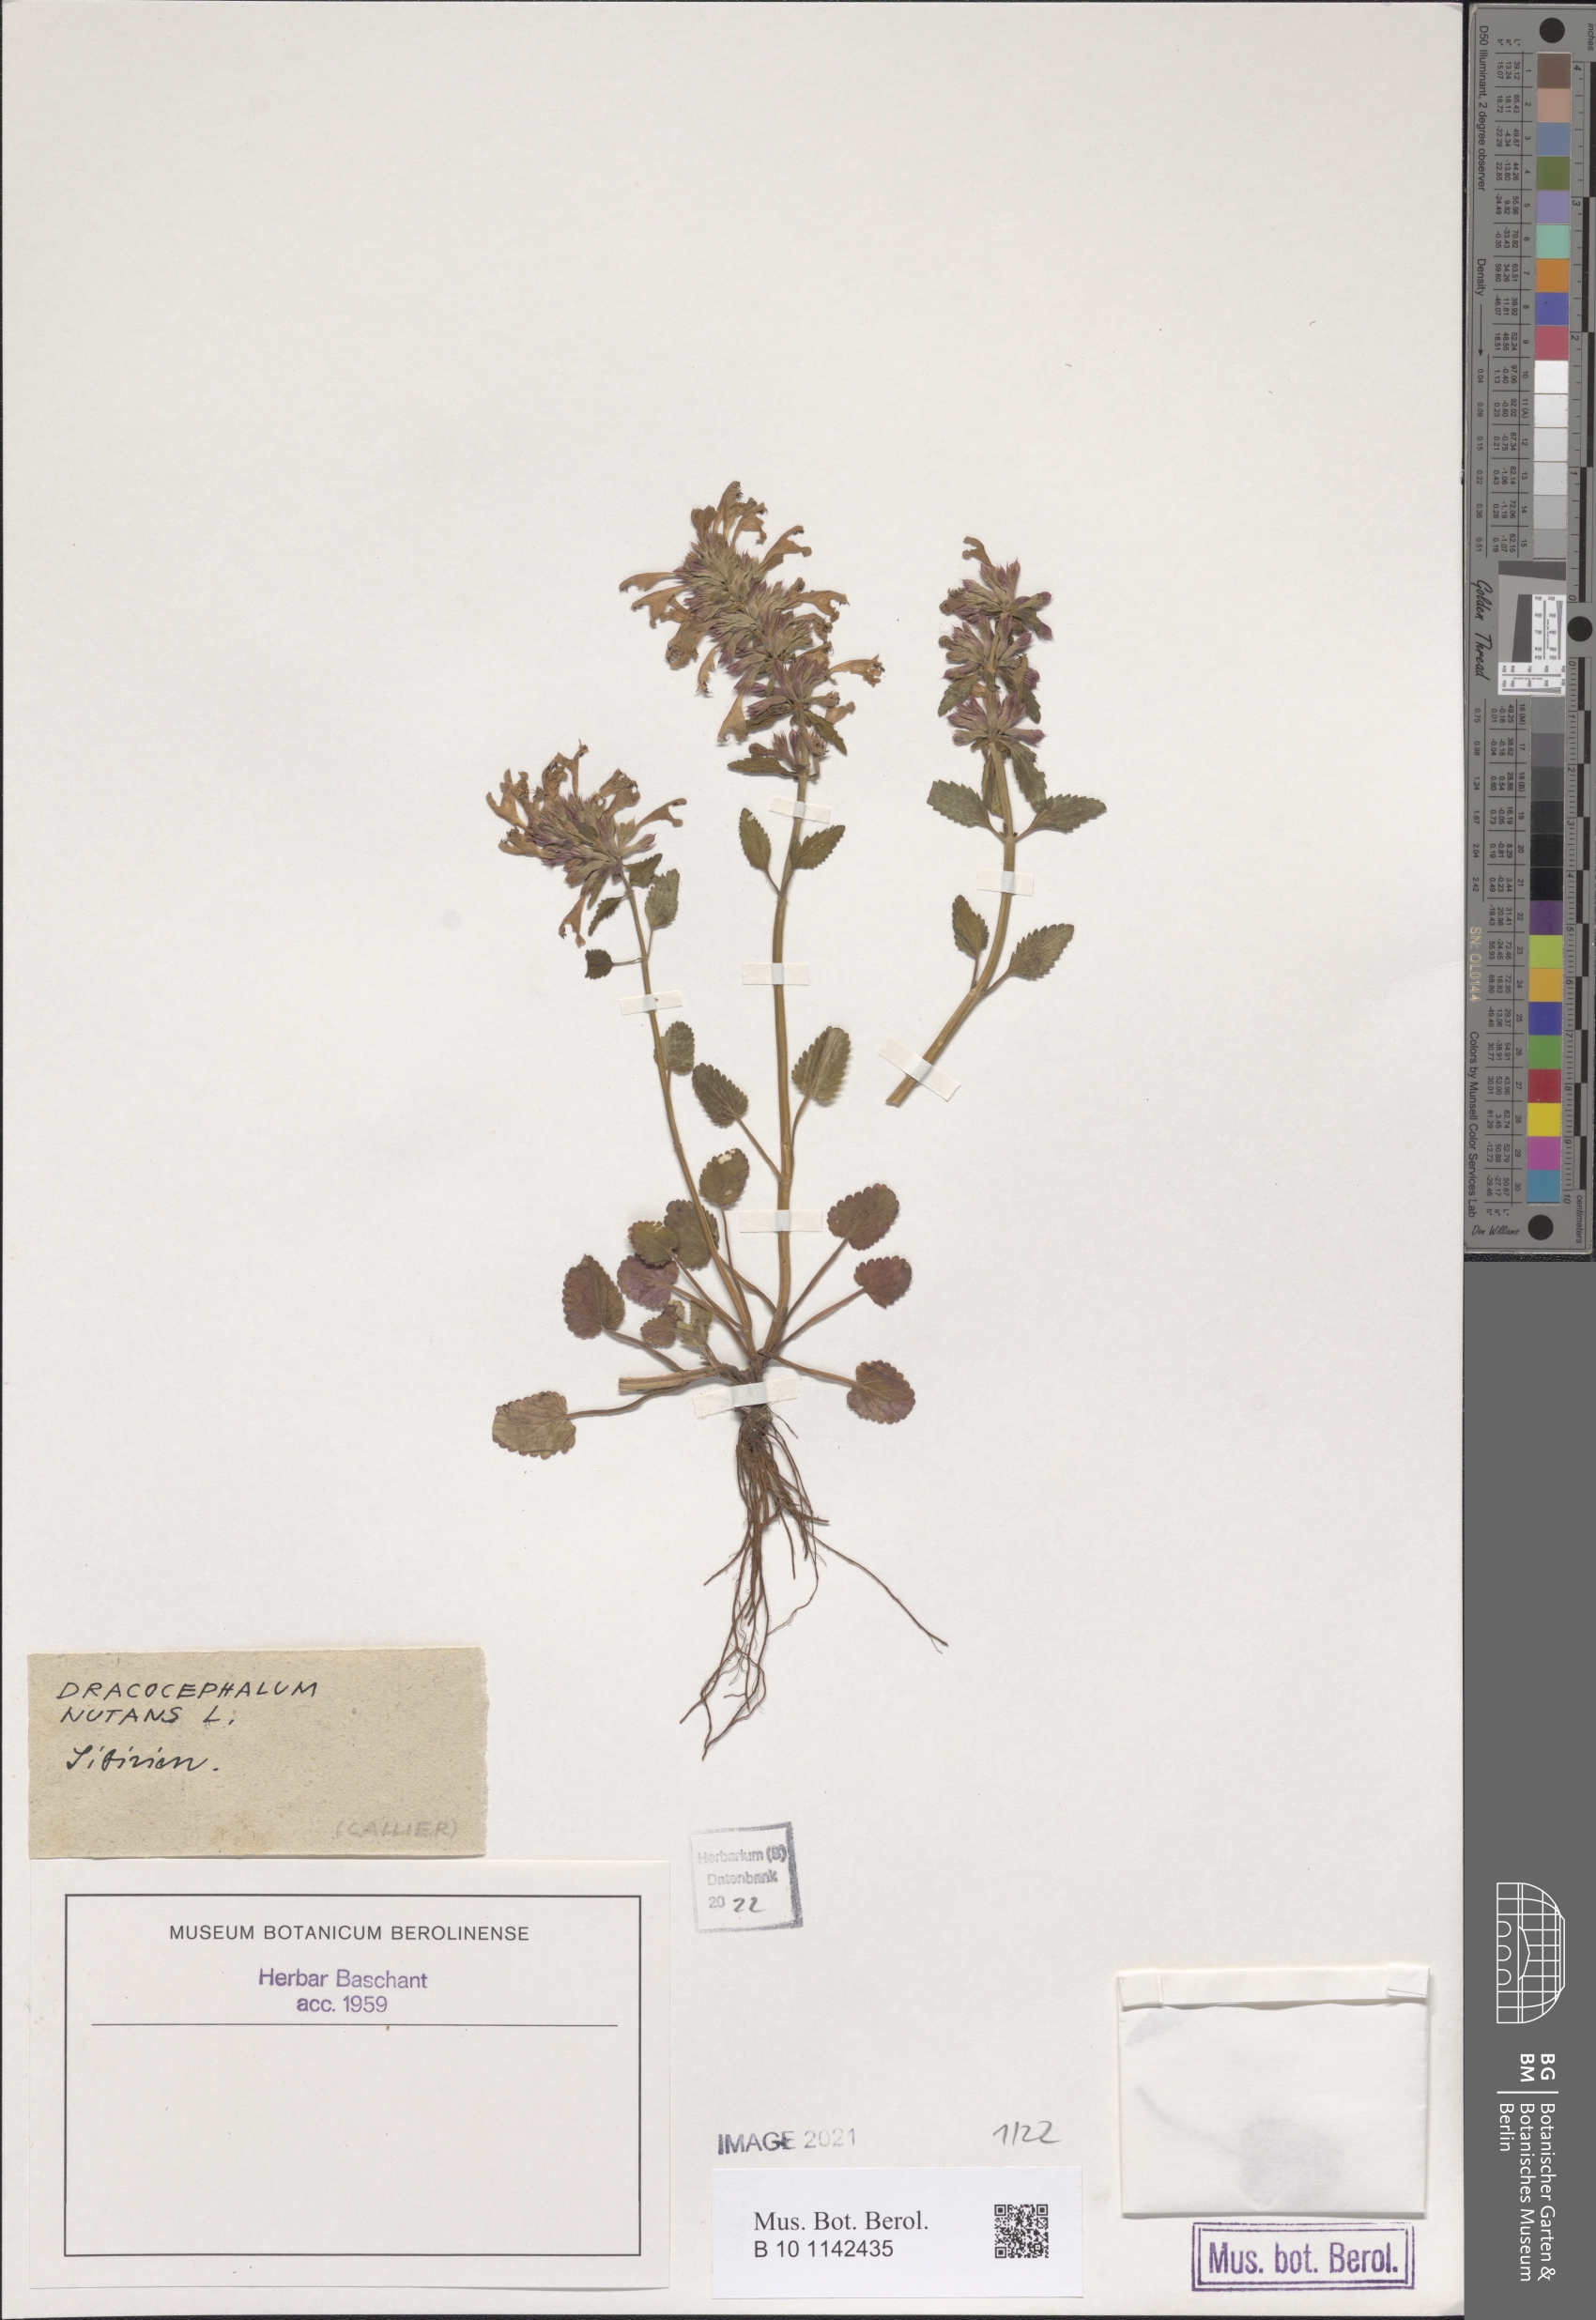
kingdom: Plantae
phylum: Tracheophyta
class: Magnoliopsida
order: Lamiales
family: Lamiaceae
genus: Dracocephalum
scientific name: Dracocephalum nutans
